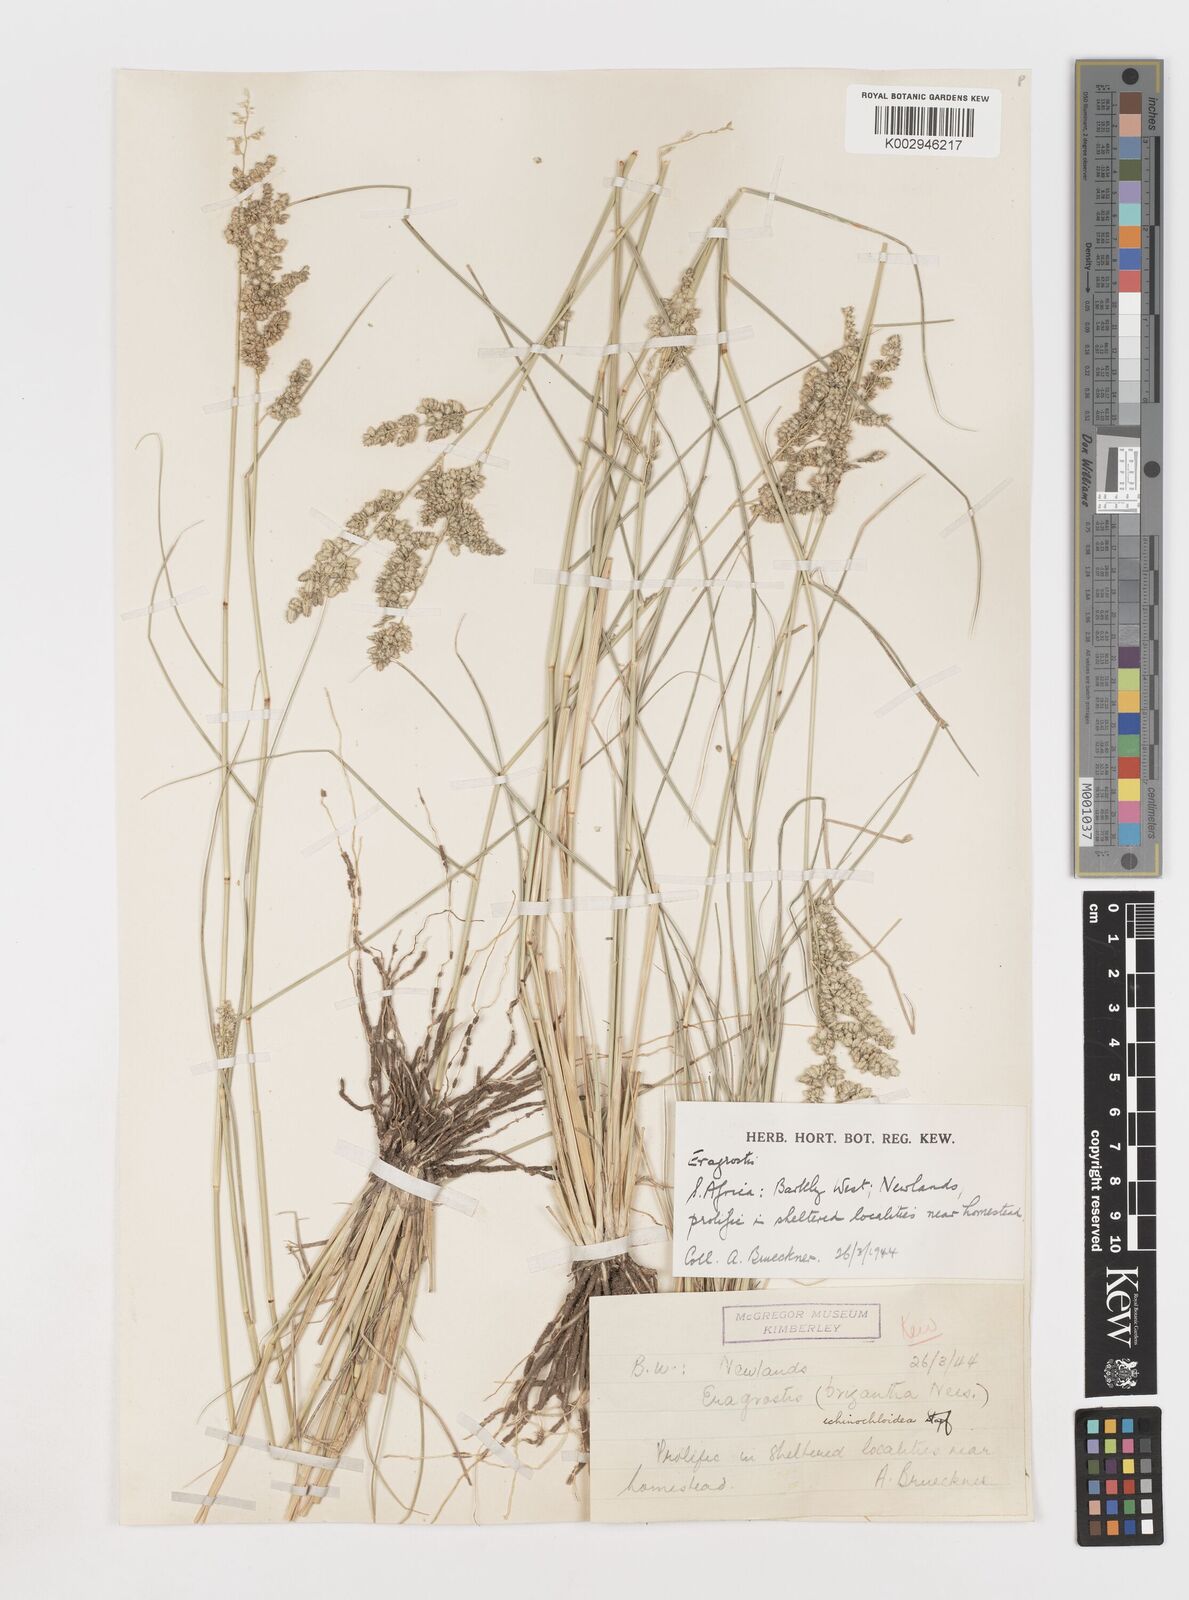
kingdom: Plantae
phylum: Tracheophyta
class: Liliopsida
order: Poales
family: Poaceae
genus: Eragrostis
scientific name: Eragrostis echinochloidea
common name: African lovegrass
